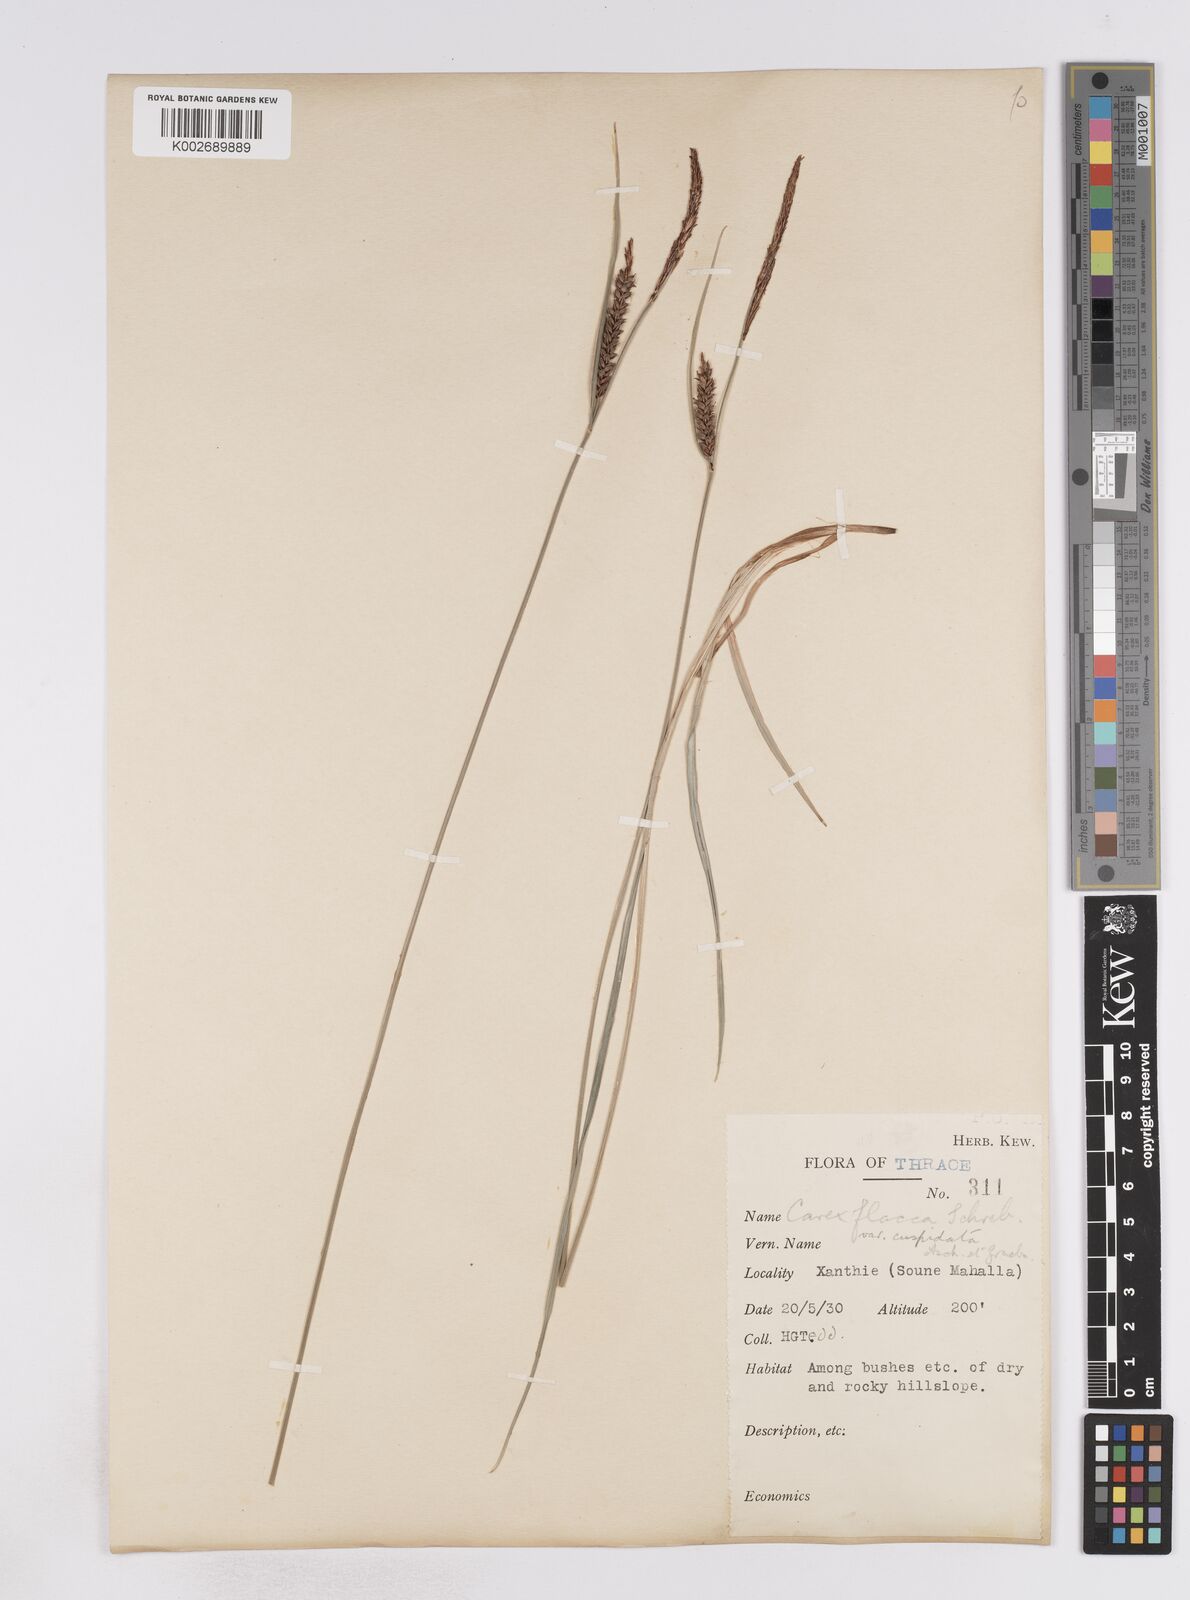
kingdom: Plantae
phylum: Tracheophyta
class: Liliopsida
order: Poales
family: Cyperaceae
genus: Carex
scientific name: Carex flacca
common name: Glaucous sedge
